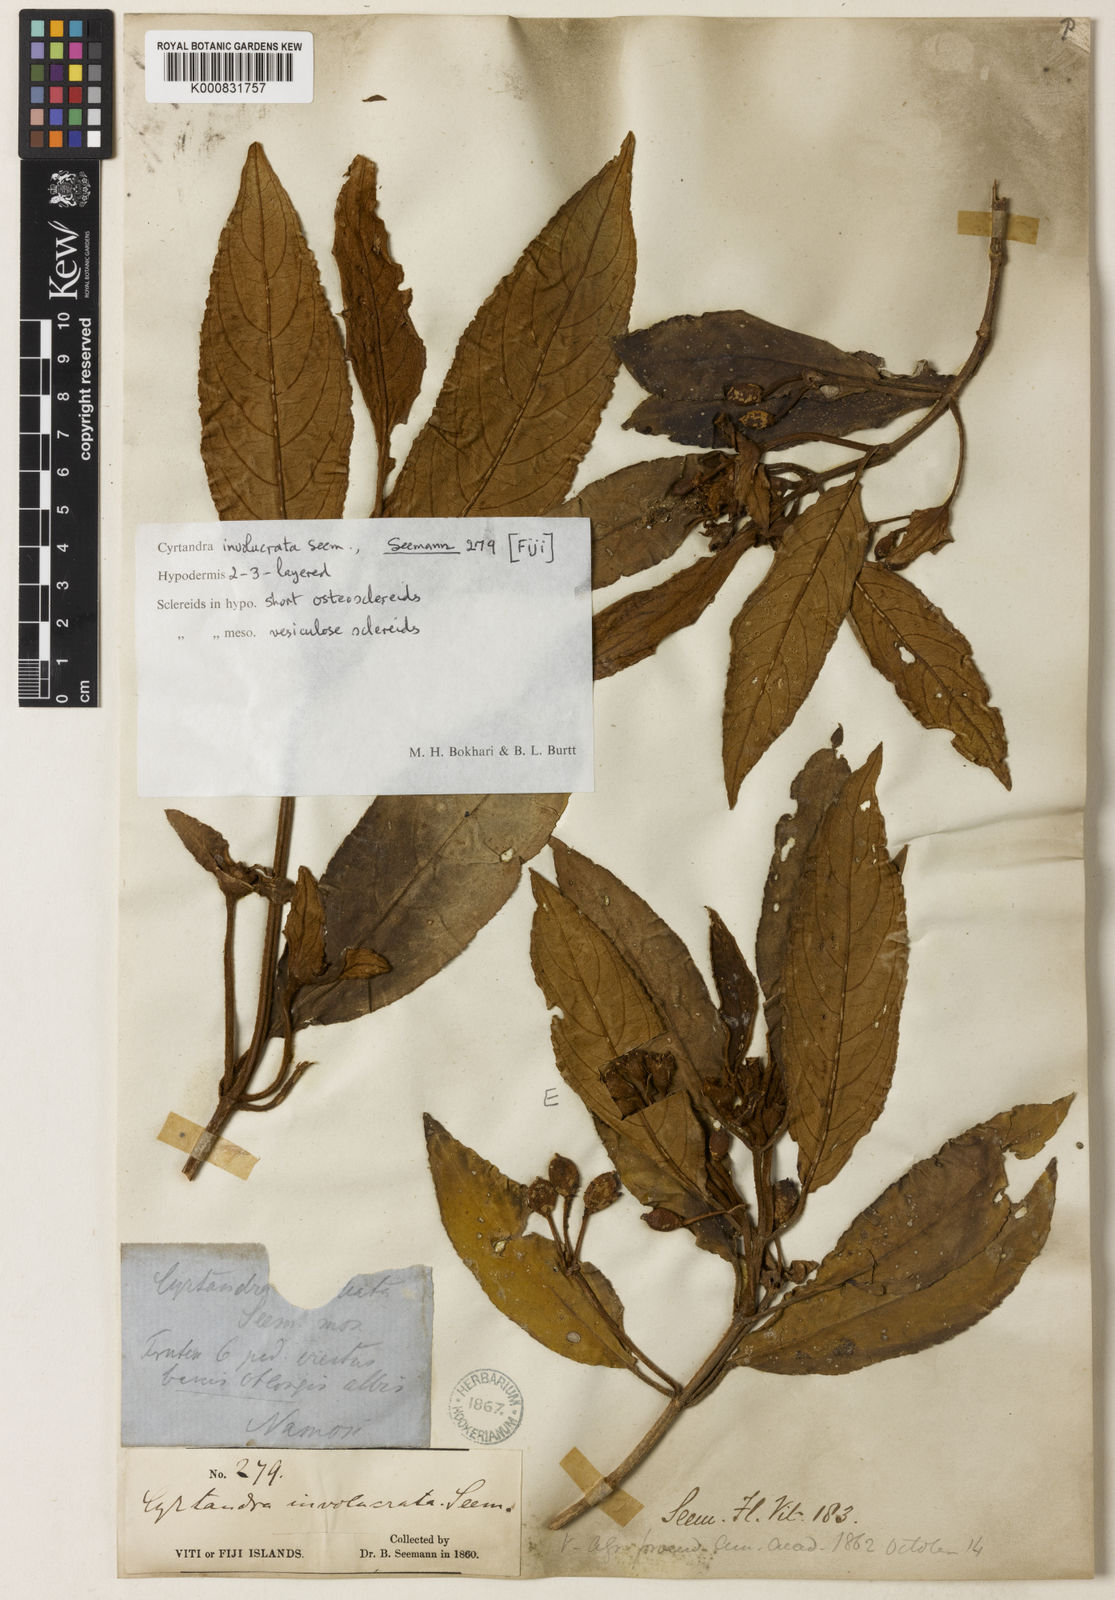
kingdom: Plantae
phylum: Tracheophyta
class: Magnoliopsida
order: Lamiales
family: Gesneriaceae
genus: Cyrtandra
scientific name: Cyrtandra involucrata
